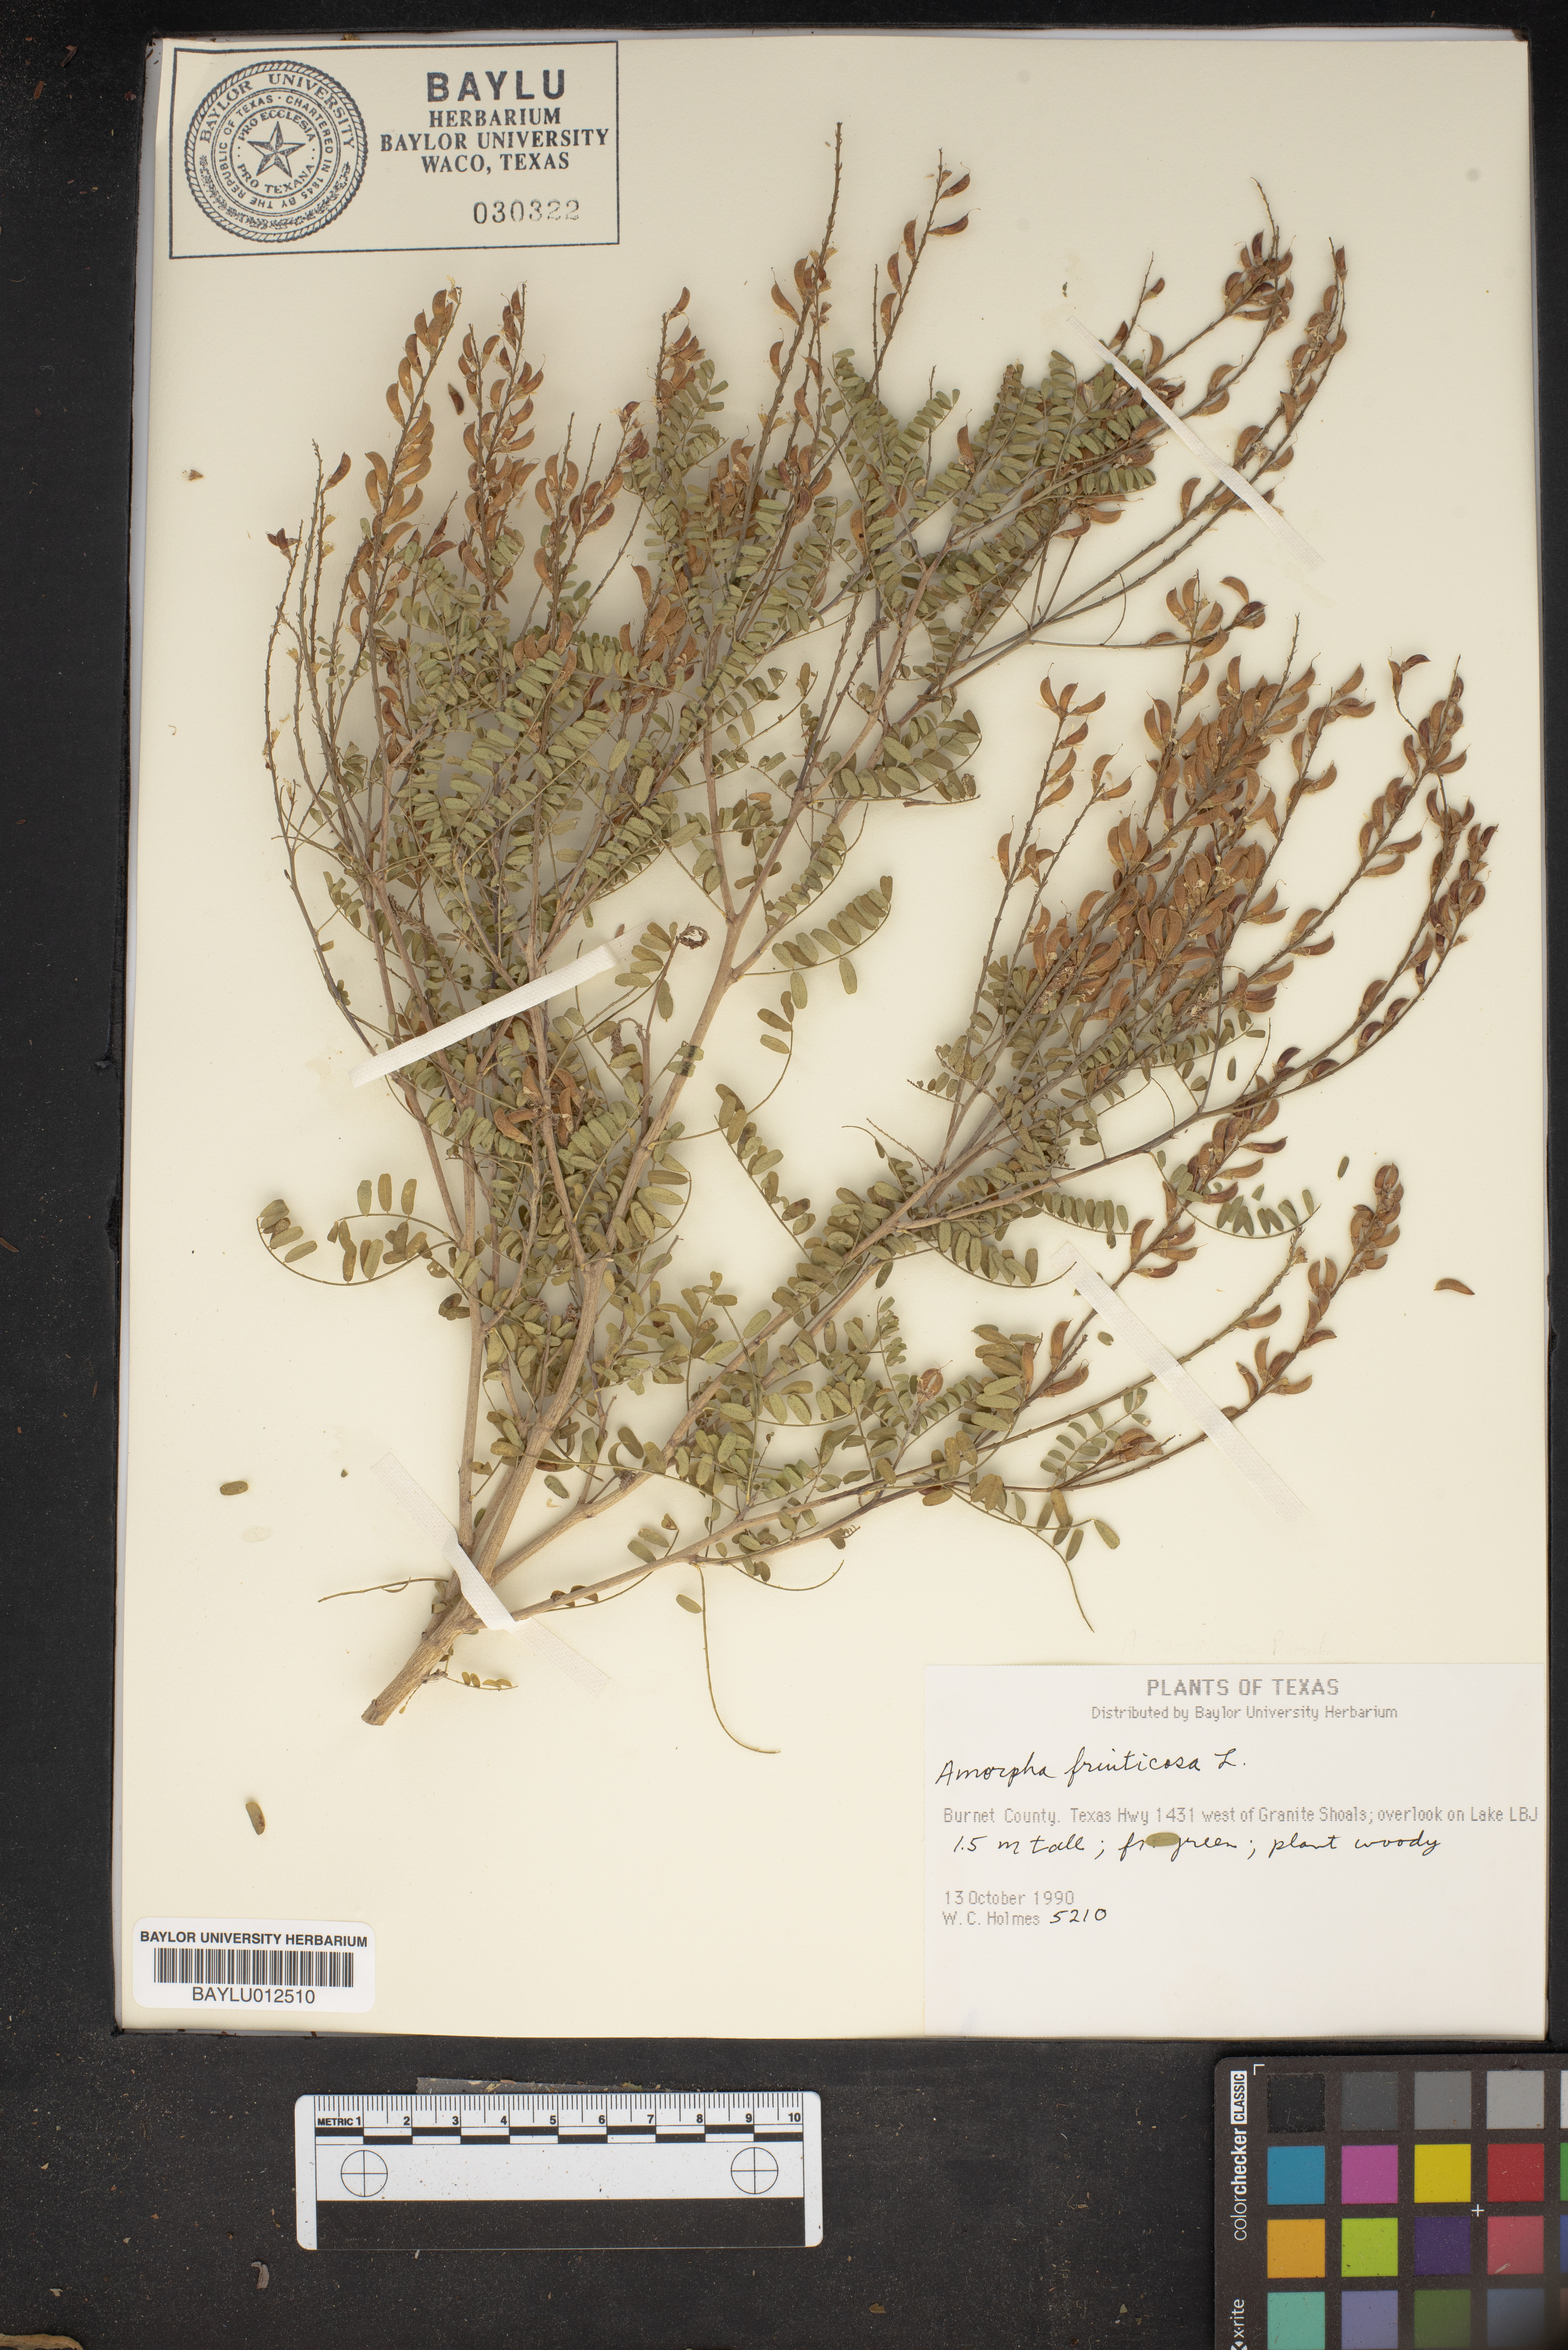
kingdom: Plantae
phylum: Tracheophyta
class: Magnoliopsida
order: Fabales
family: Fabaceae
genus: Amorpha
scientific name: Amorpha fruticosa
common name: False indigo
